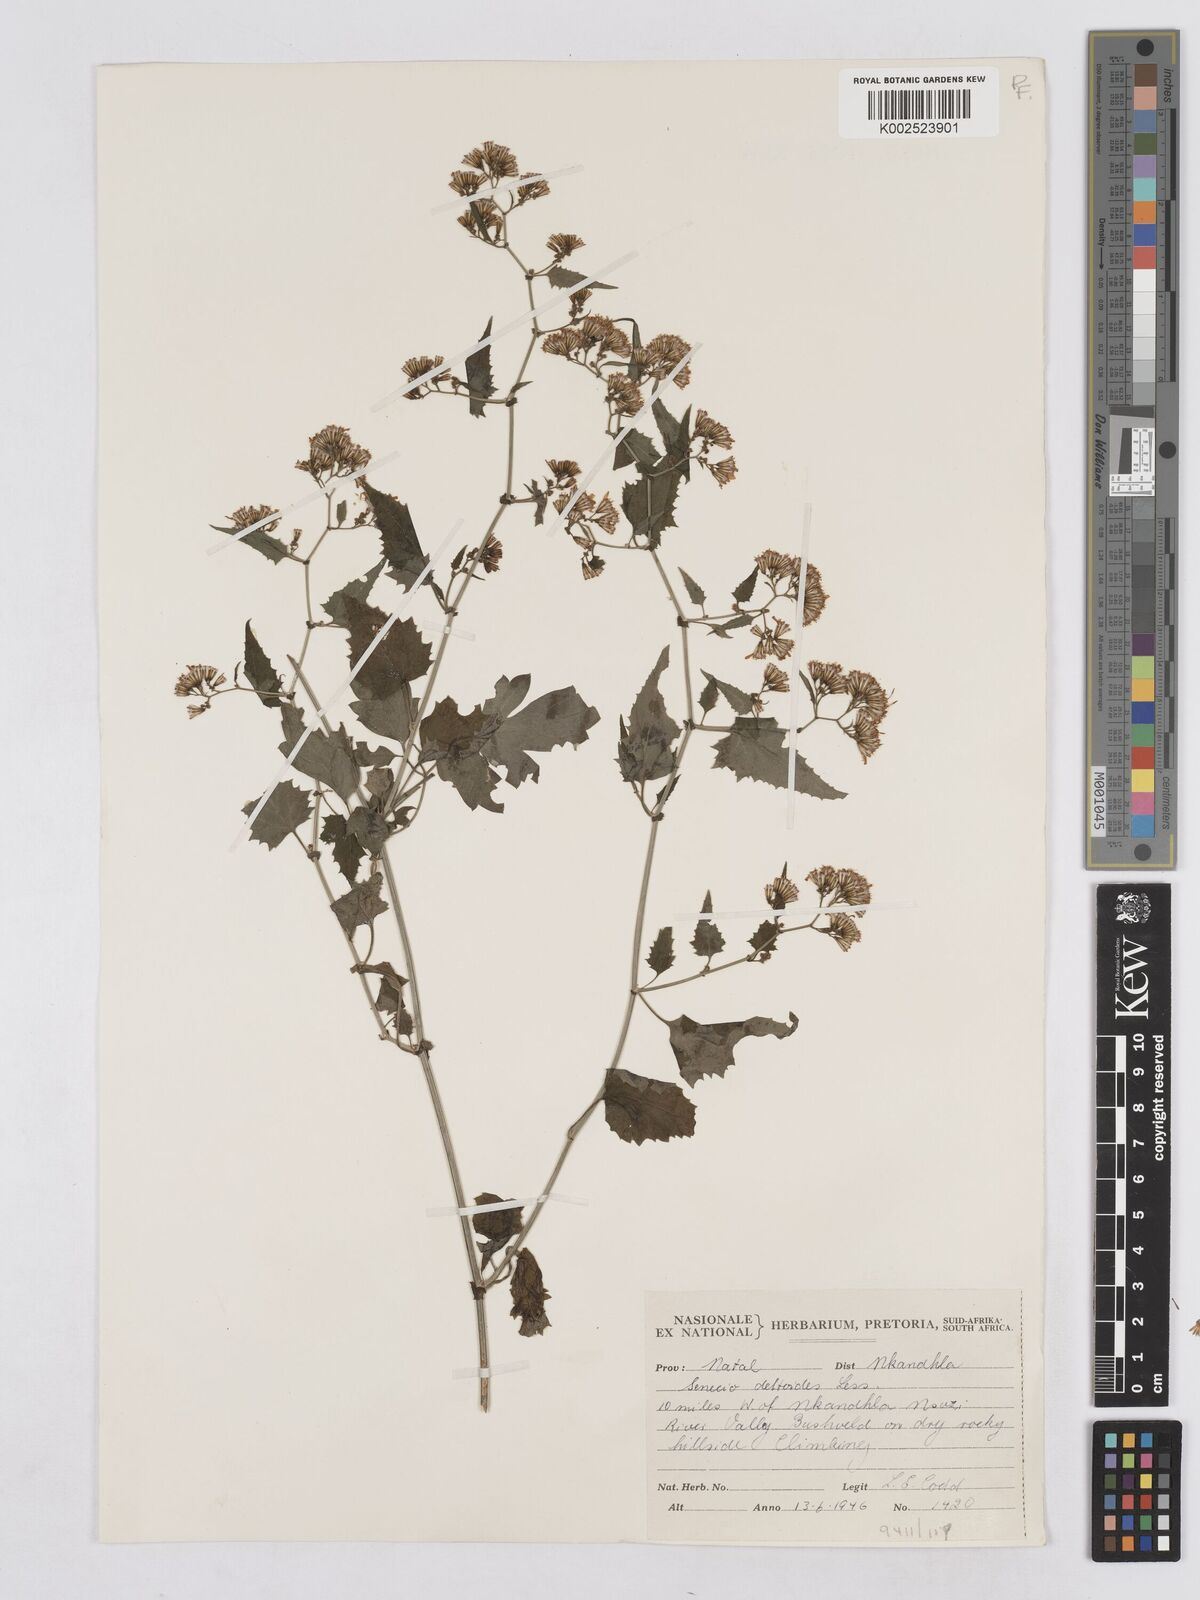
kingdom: Plantae
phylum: Tracheophyta
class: Magnoliopsida
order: Asterales
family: Asteraceae
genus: Senecio
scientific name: Senecio deltoideus
